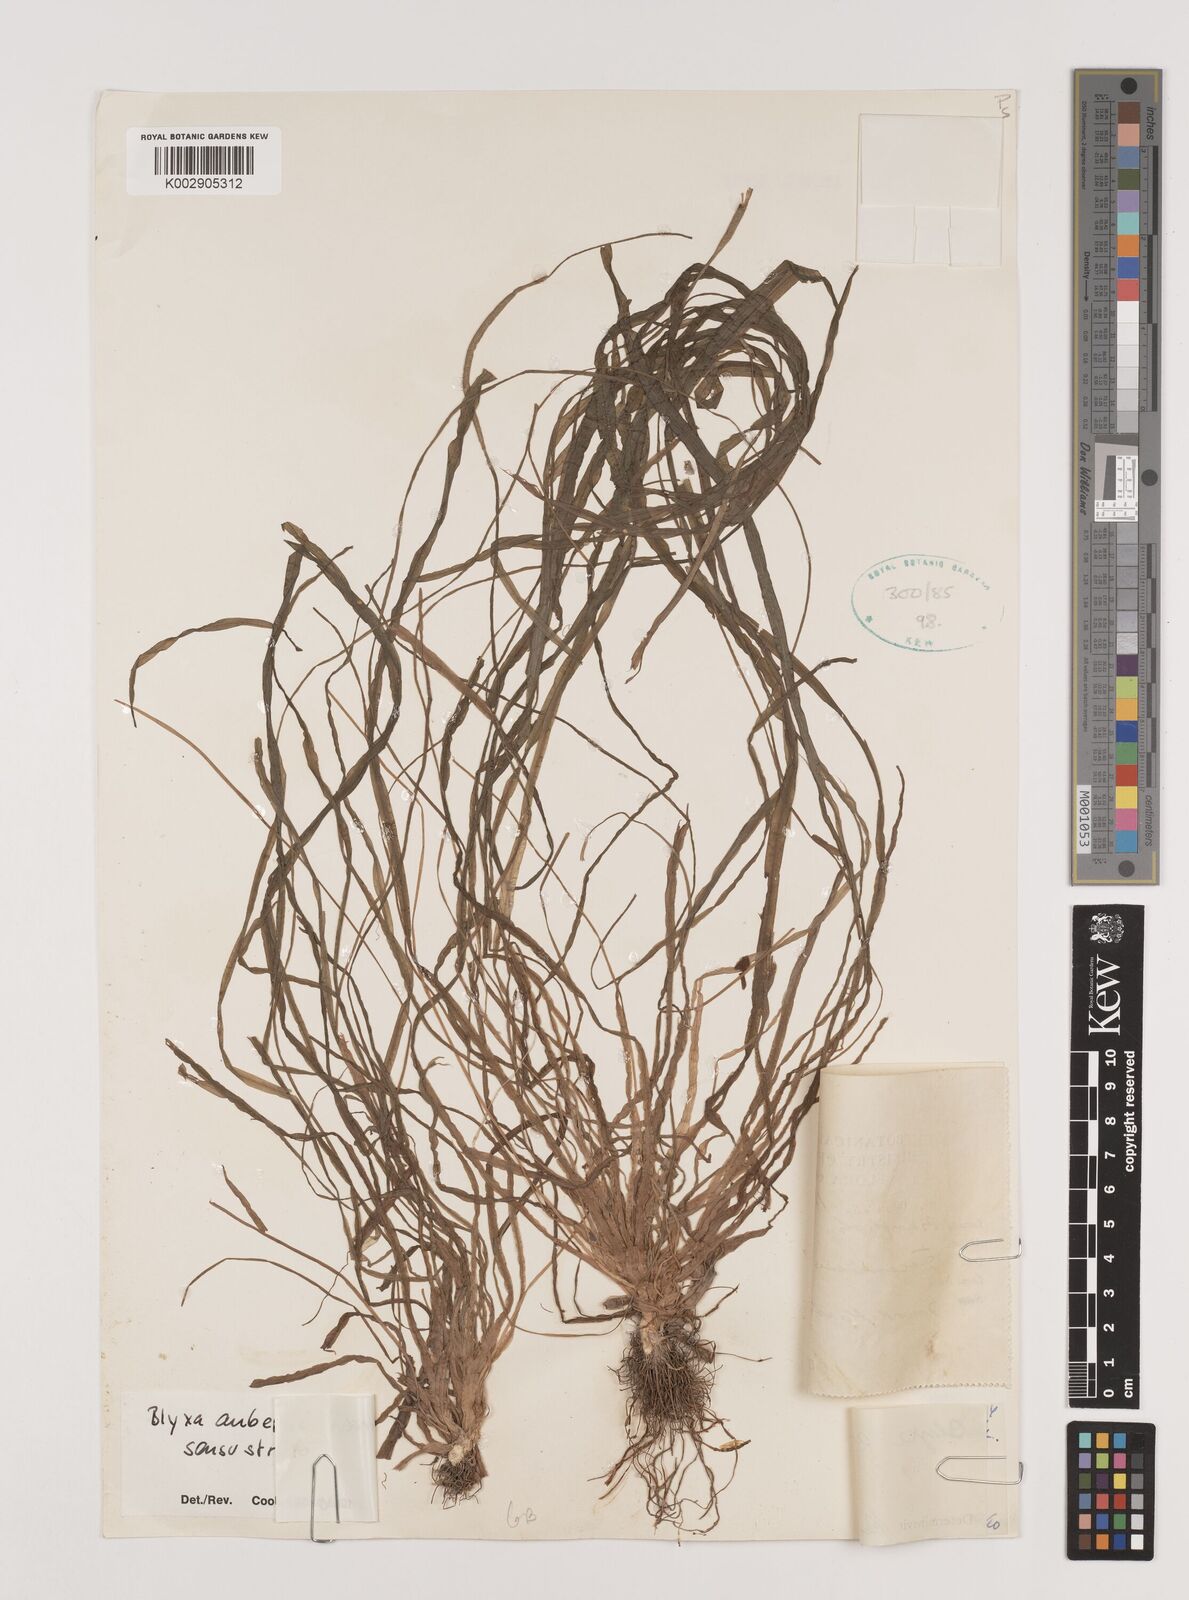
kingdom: Plantae
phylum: Tracheophyta
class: Liliopsida
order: Alismatales
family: Hydrocharitaceae
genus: Blyxa
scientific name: Blyxa aubertii
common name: Roundfruit blyxa
